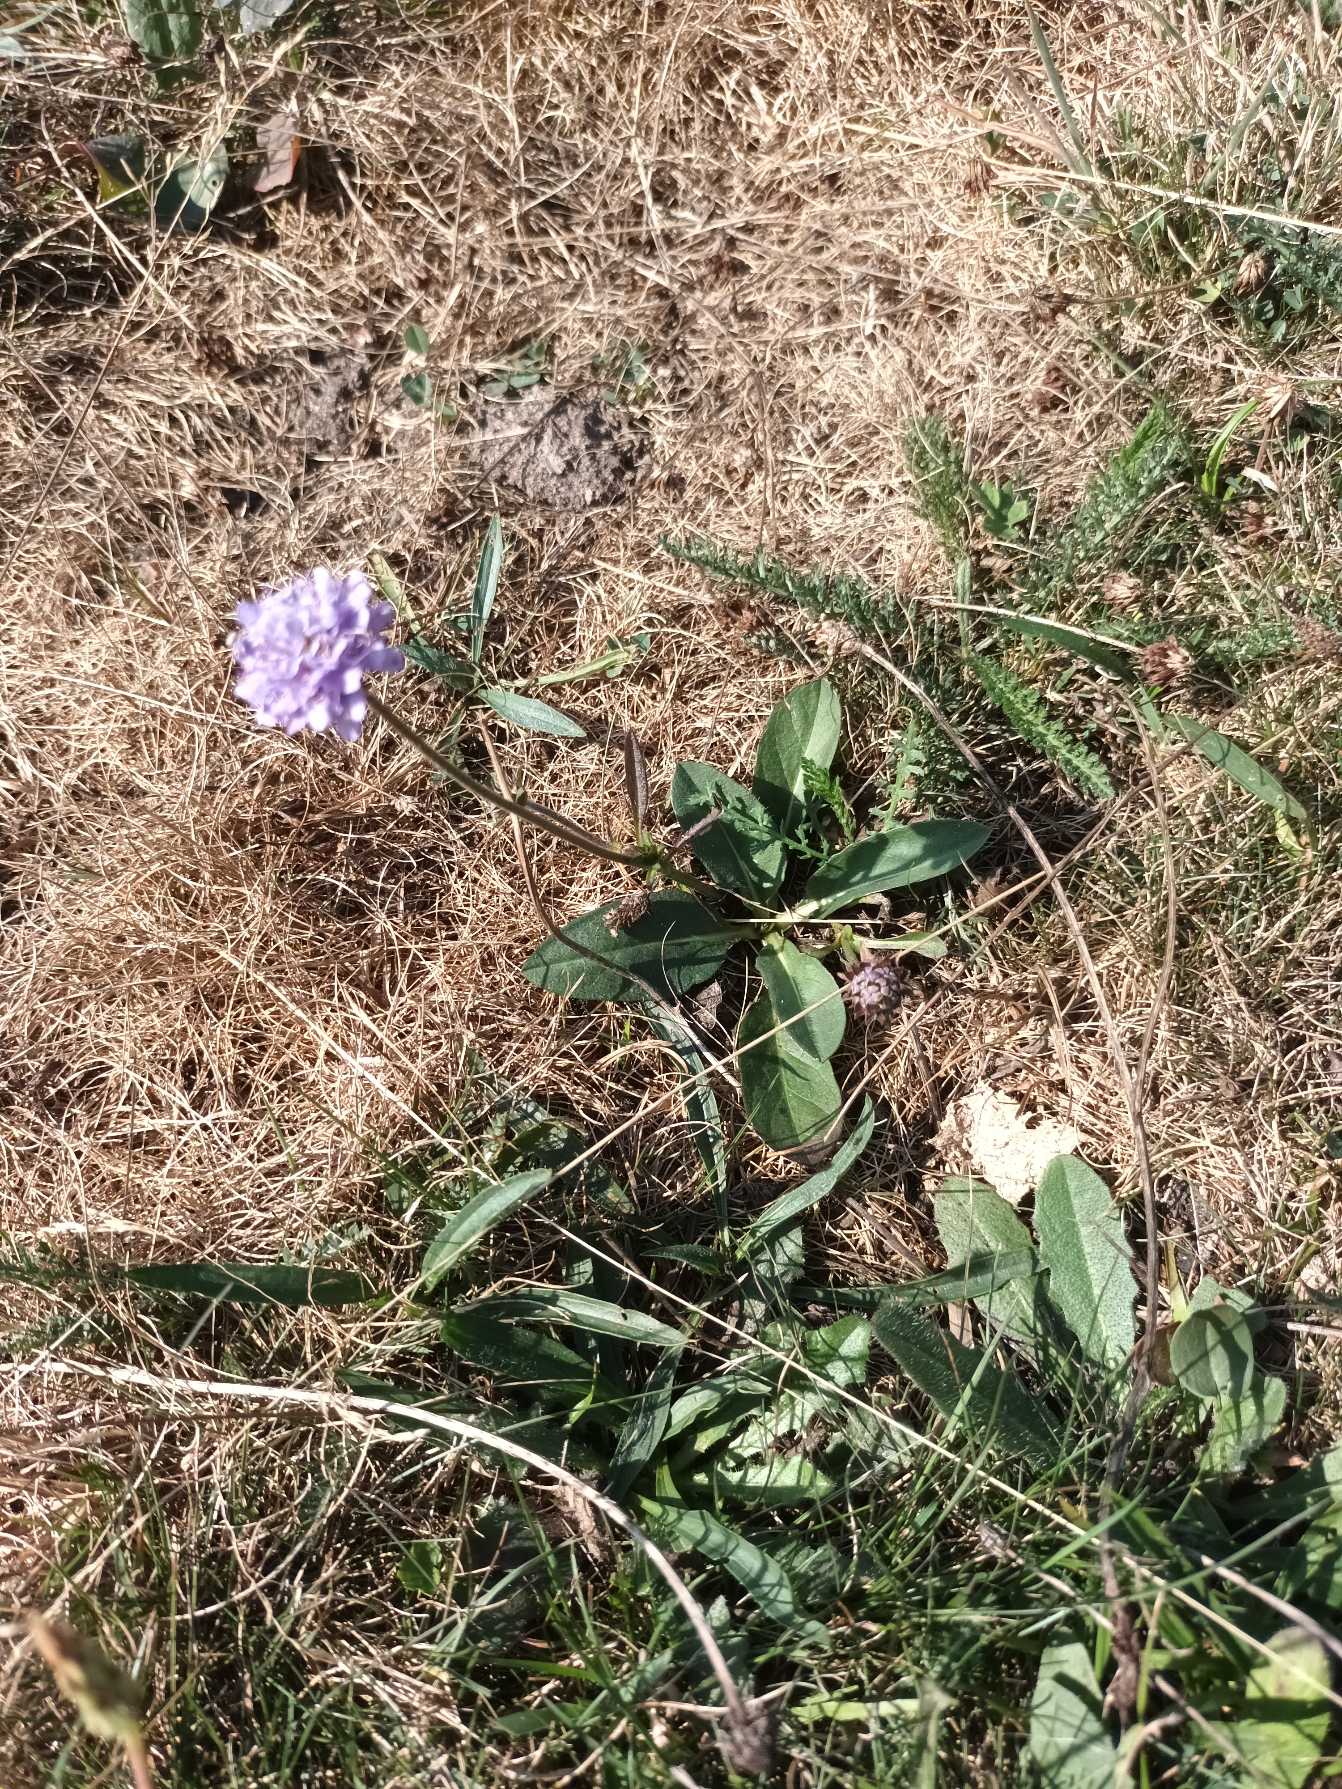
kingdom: Plantae
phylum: Tracheophyta
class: Magnoliopsida
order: Dipsacales
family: Caprifoliaceae
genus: Succisa
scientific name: Succisa pratensis
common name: Djævelsbid
